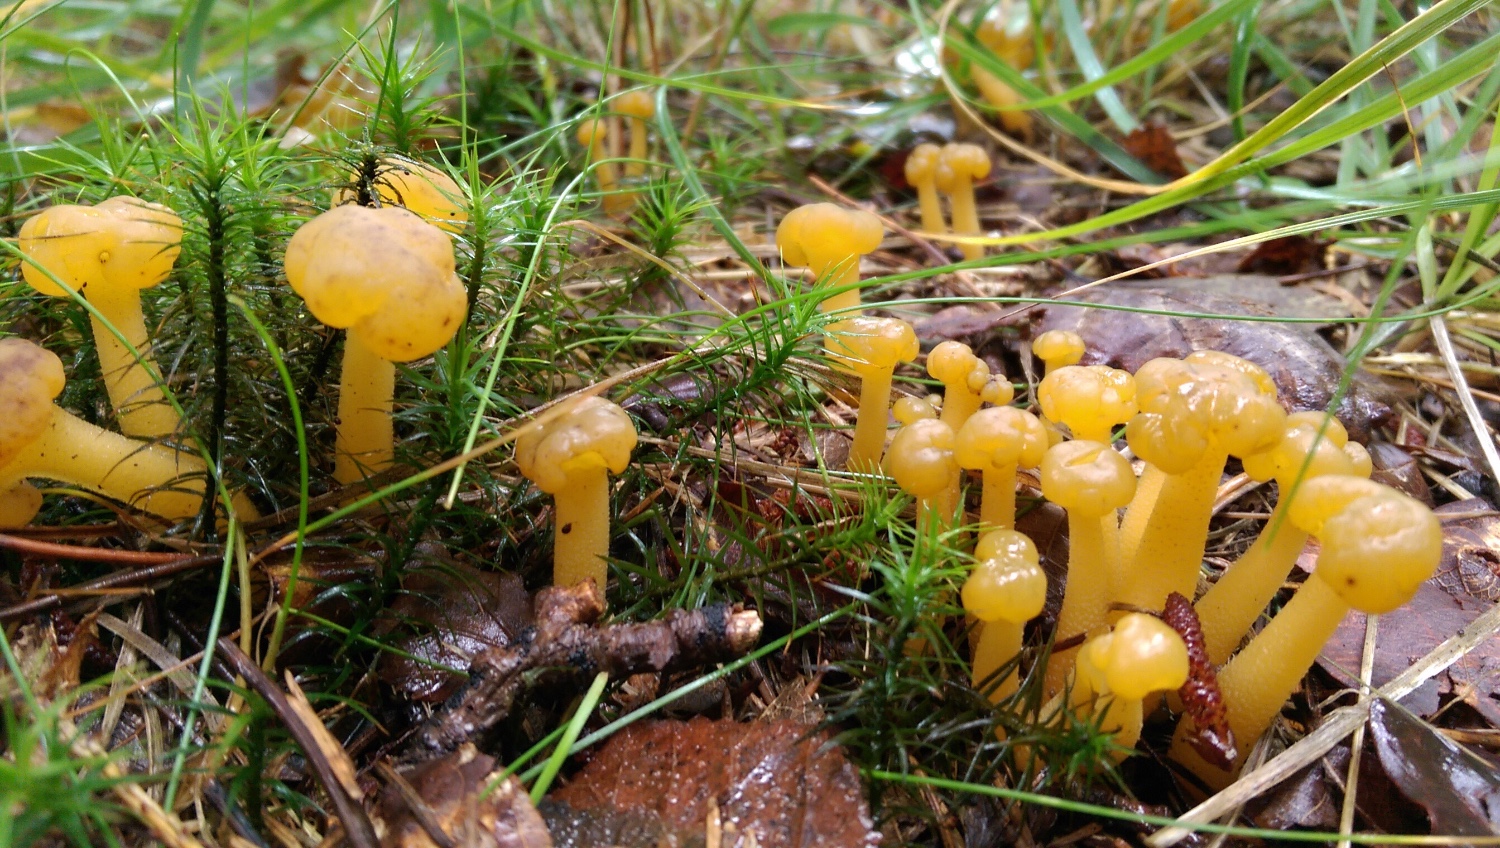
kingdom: Fungi
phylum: Ascomycota
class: Leotiomycetes
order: Leotiales
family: Leotiaceae
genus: Leotia
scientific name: Leotia lubrica
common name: ravsvamp
